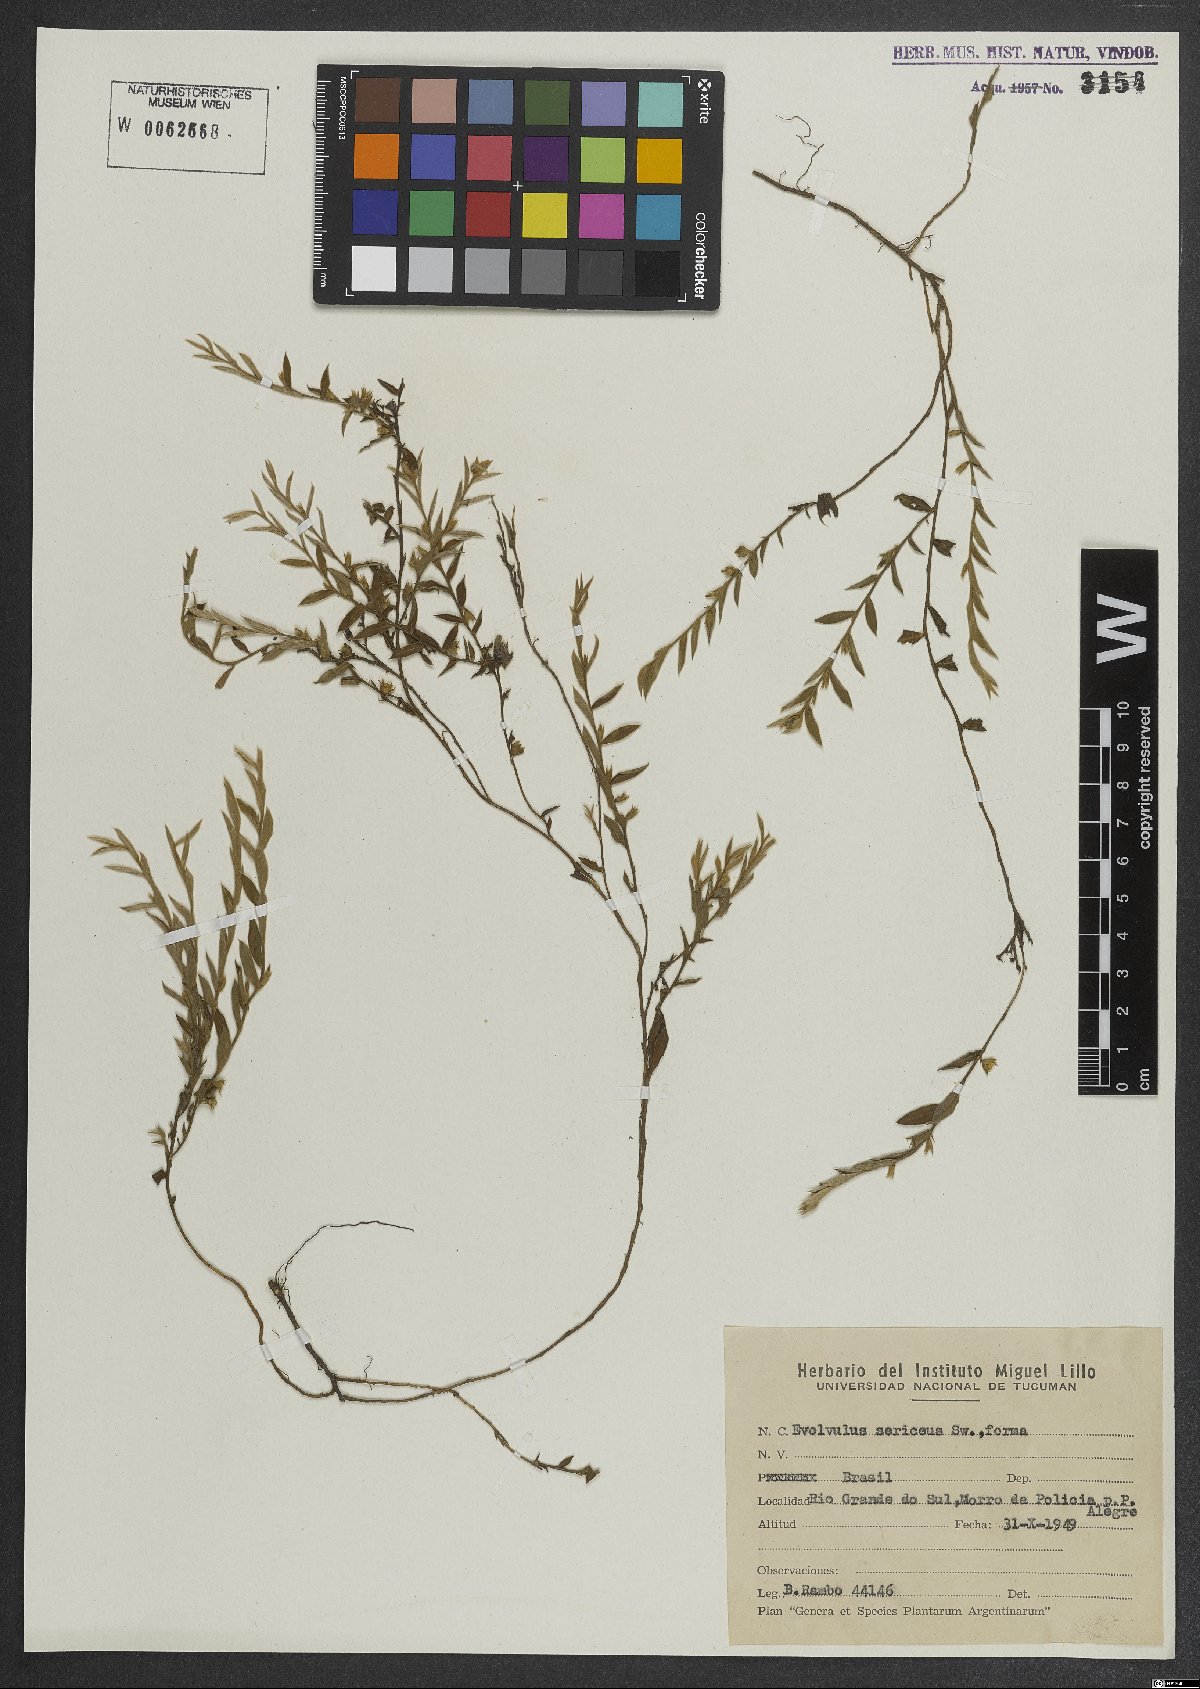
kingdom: Plantae
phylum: Tracheophyta
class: Magnoliopsida
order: Solanales
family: Convolvulaceae
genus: Evolvulus
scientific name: Evolvulus sericeus
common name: Blue dots
